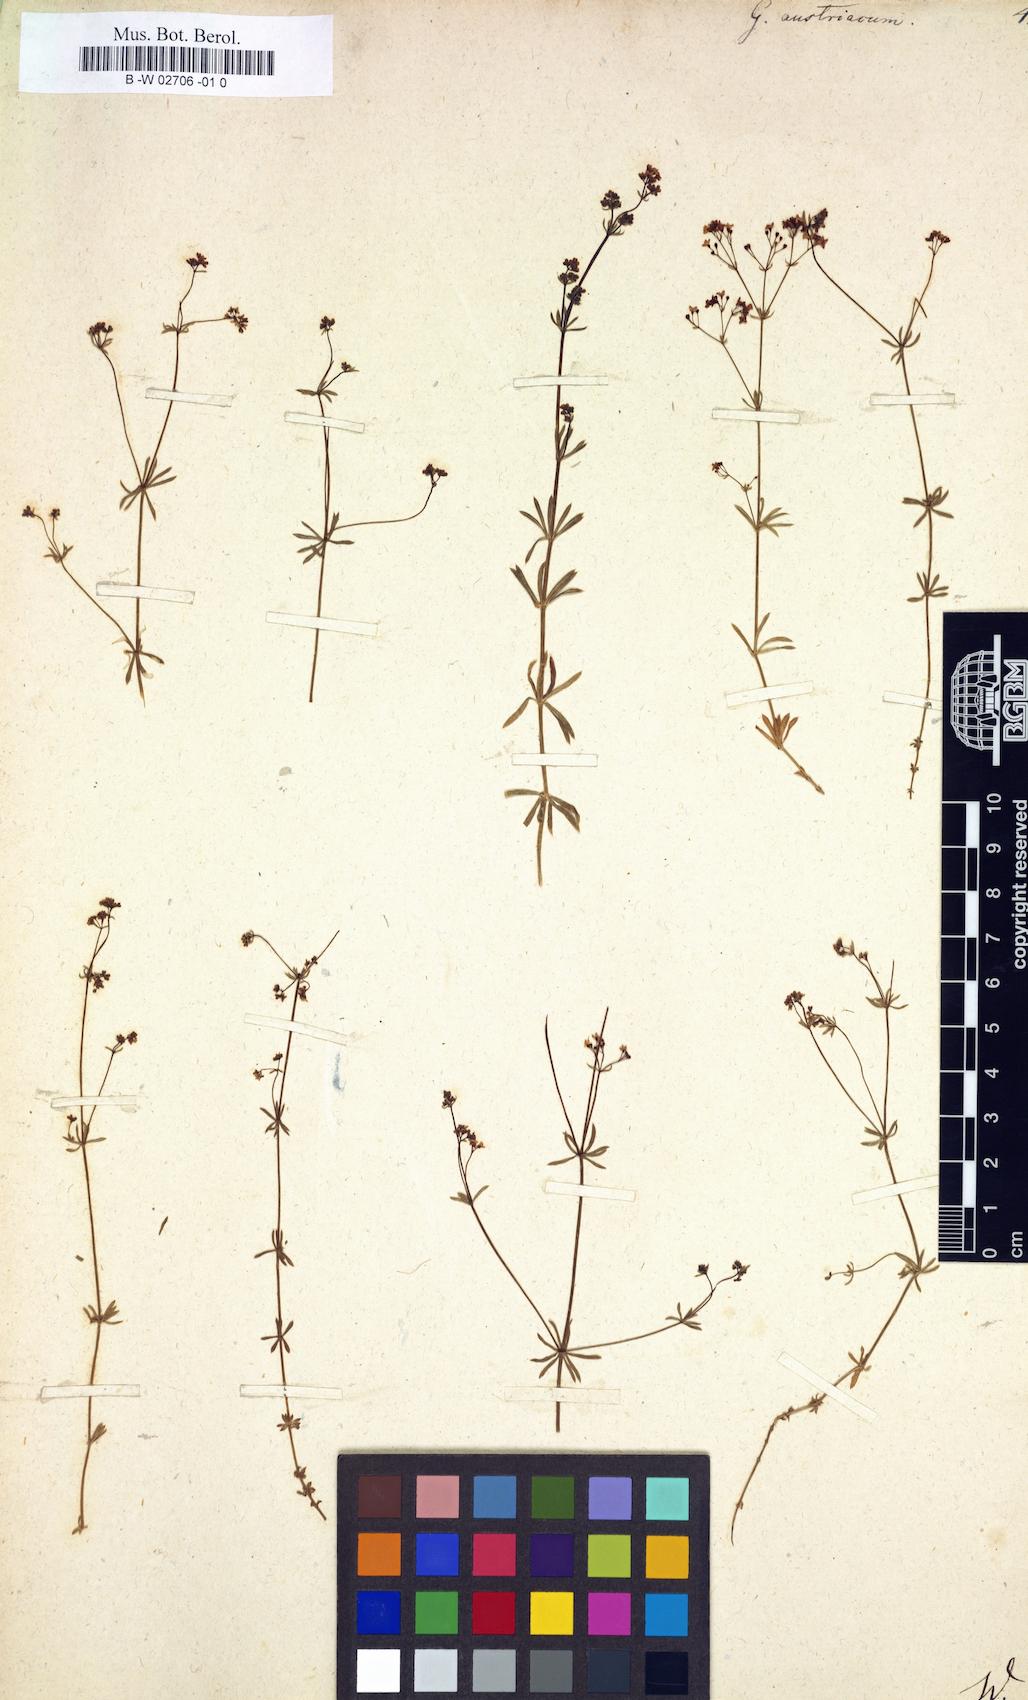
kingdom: Plantae
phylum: Tracheophyta
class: Magnoliopsida
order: Gentianales
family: Rubiaceae
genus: Galium
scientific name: Galium austriacum
